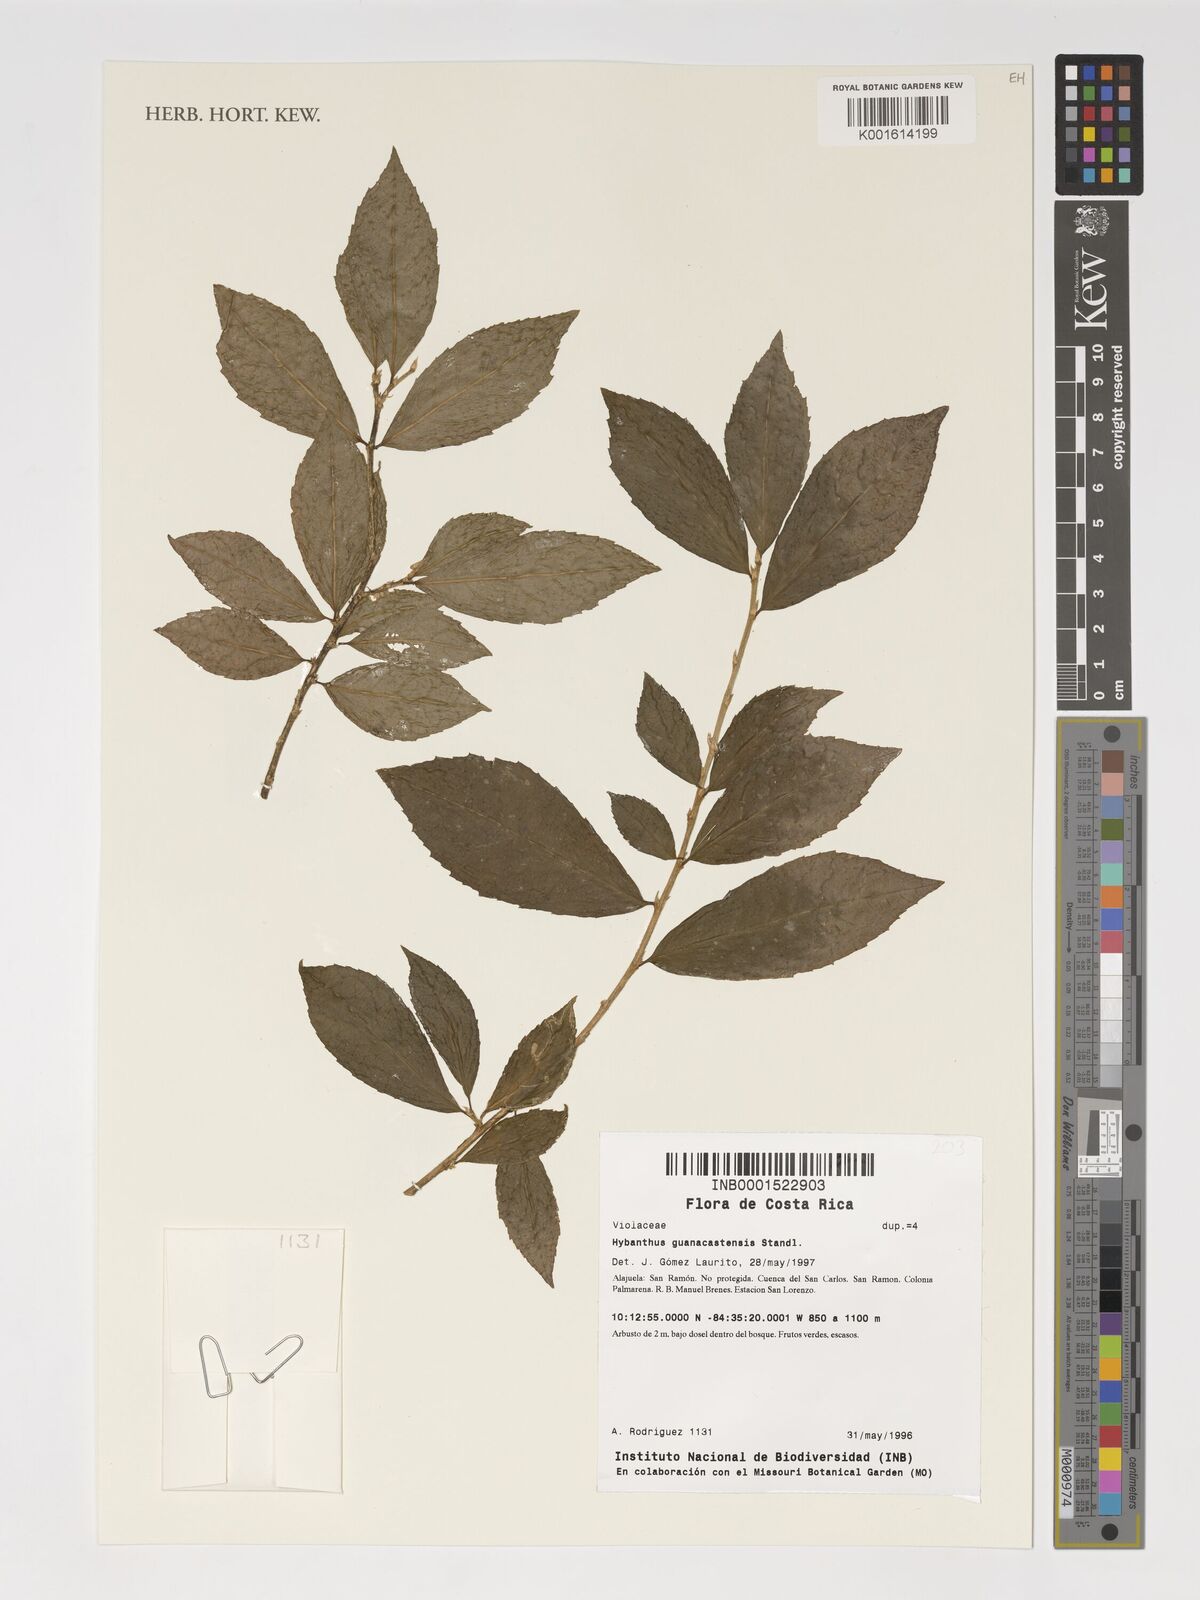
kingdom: Plantae
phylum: Tracheophyta
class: Magnoliopsida
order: Malpighiales
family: Violaceae
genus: Hybanthus
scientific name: Hybanthus guanacastensis
